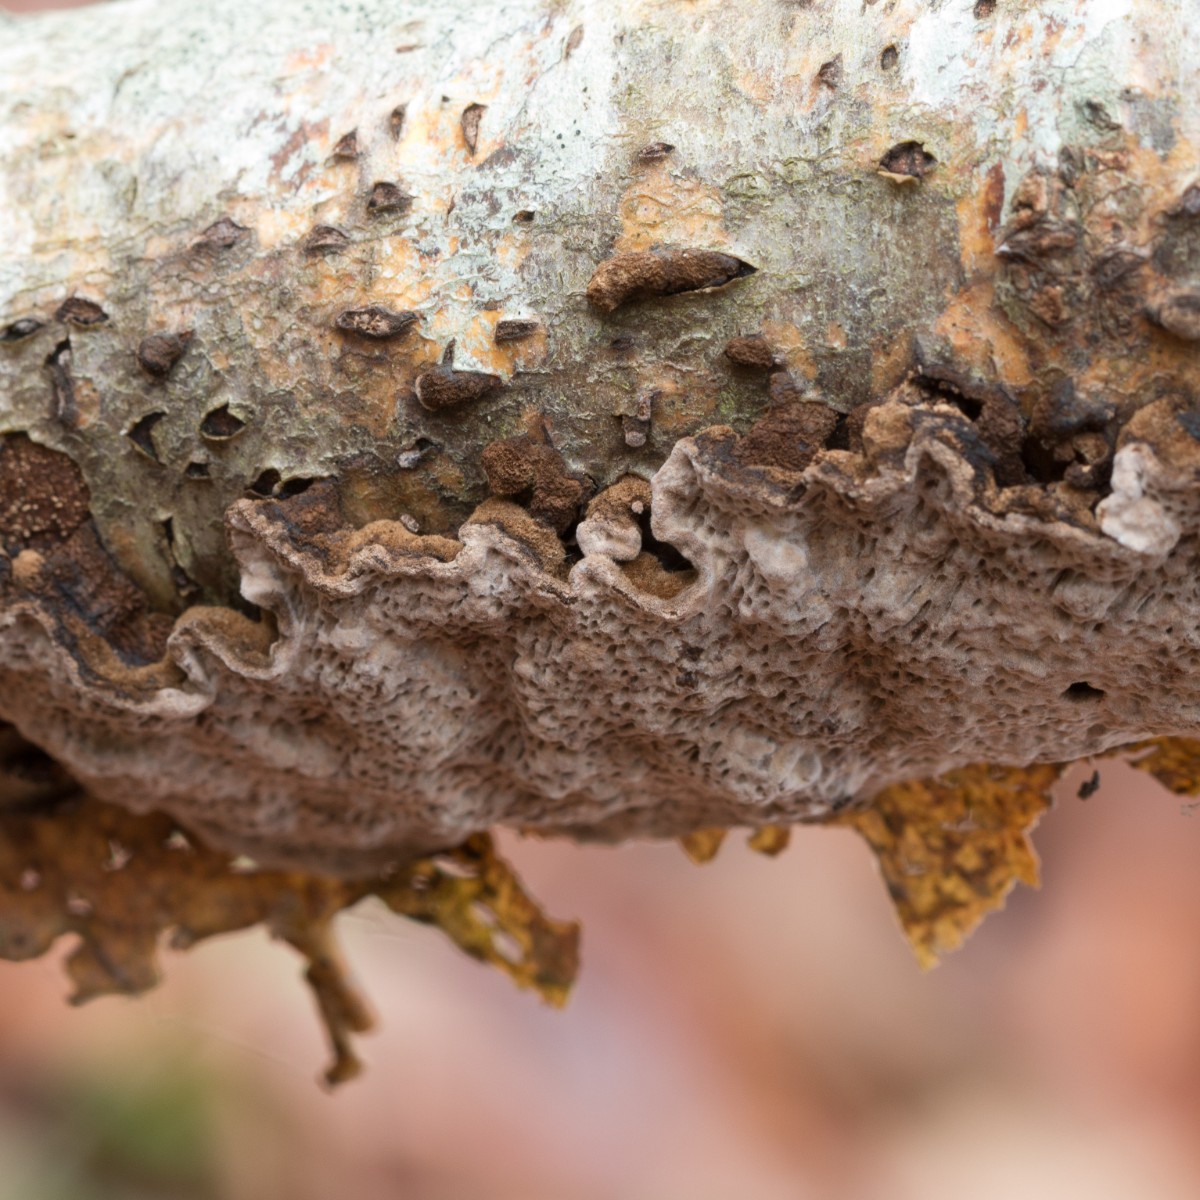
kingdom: Fungi
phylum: Basidiomycota
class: Agaricomycetes
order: Polyporales
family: Polyporaceae
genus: Podofomes
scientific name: Podofomes mollis
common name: blød begporesvamp
